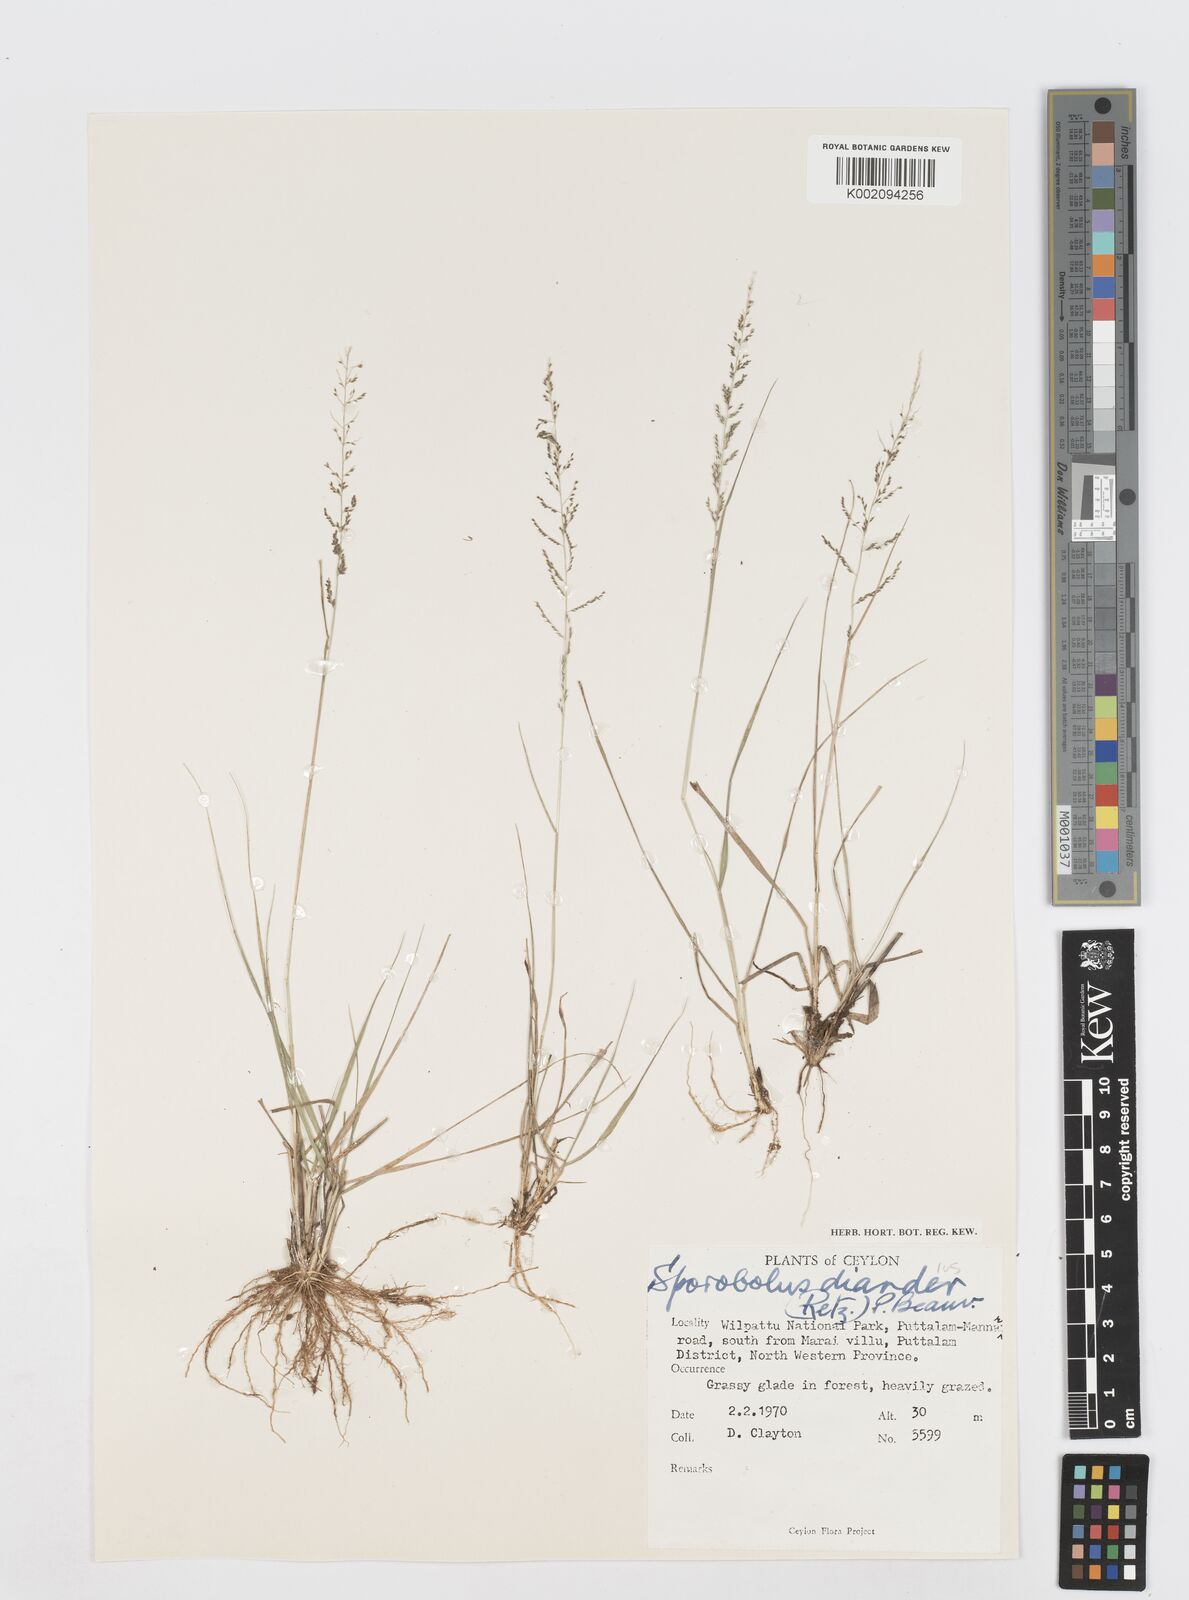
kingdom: Plantae
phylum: Tracheophyta
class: Liliopsida
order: Poales
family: Poaceae
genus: Sporobolus
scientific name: Sporobolus diandrus
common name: Tussock dropseed
